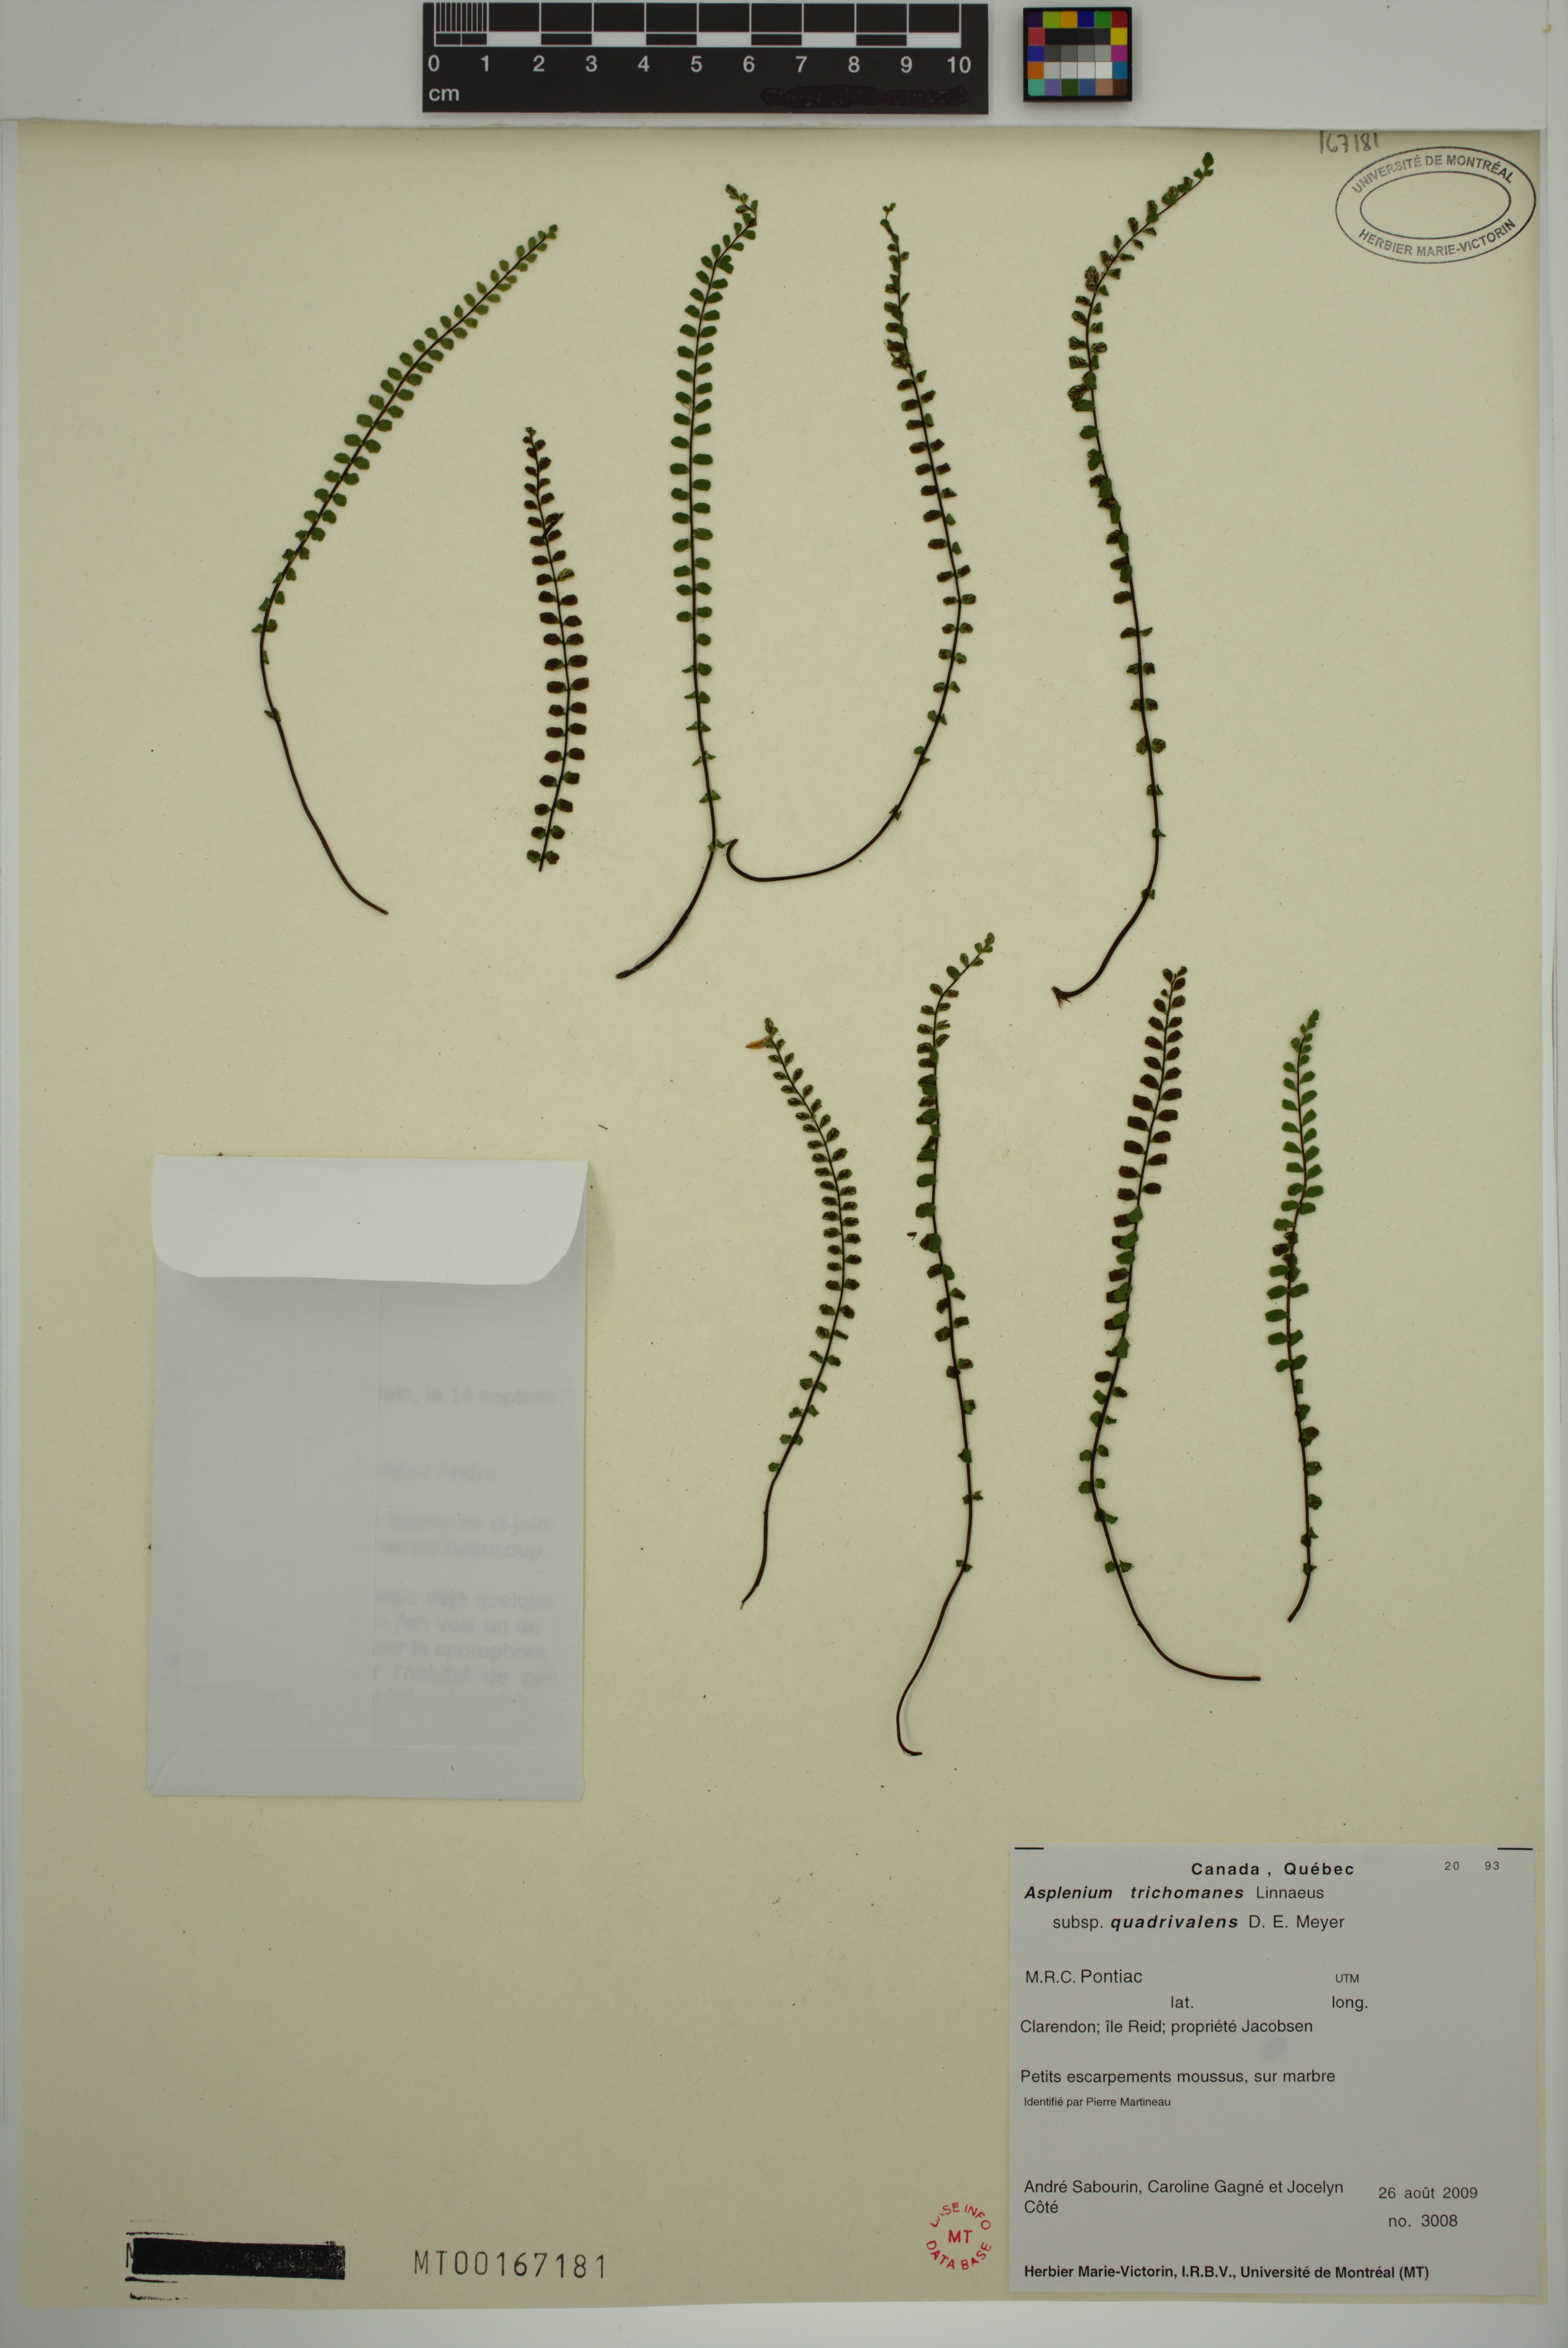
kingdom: Plantae
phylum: Tracheophyta
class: Polypodiopsida
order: Polypodiales
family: Aspleniaceae
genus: Asplenium
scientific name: Asplenium quadrivalens
